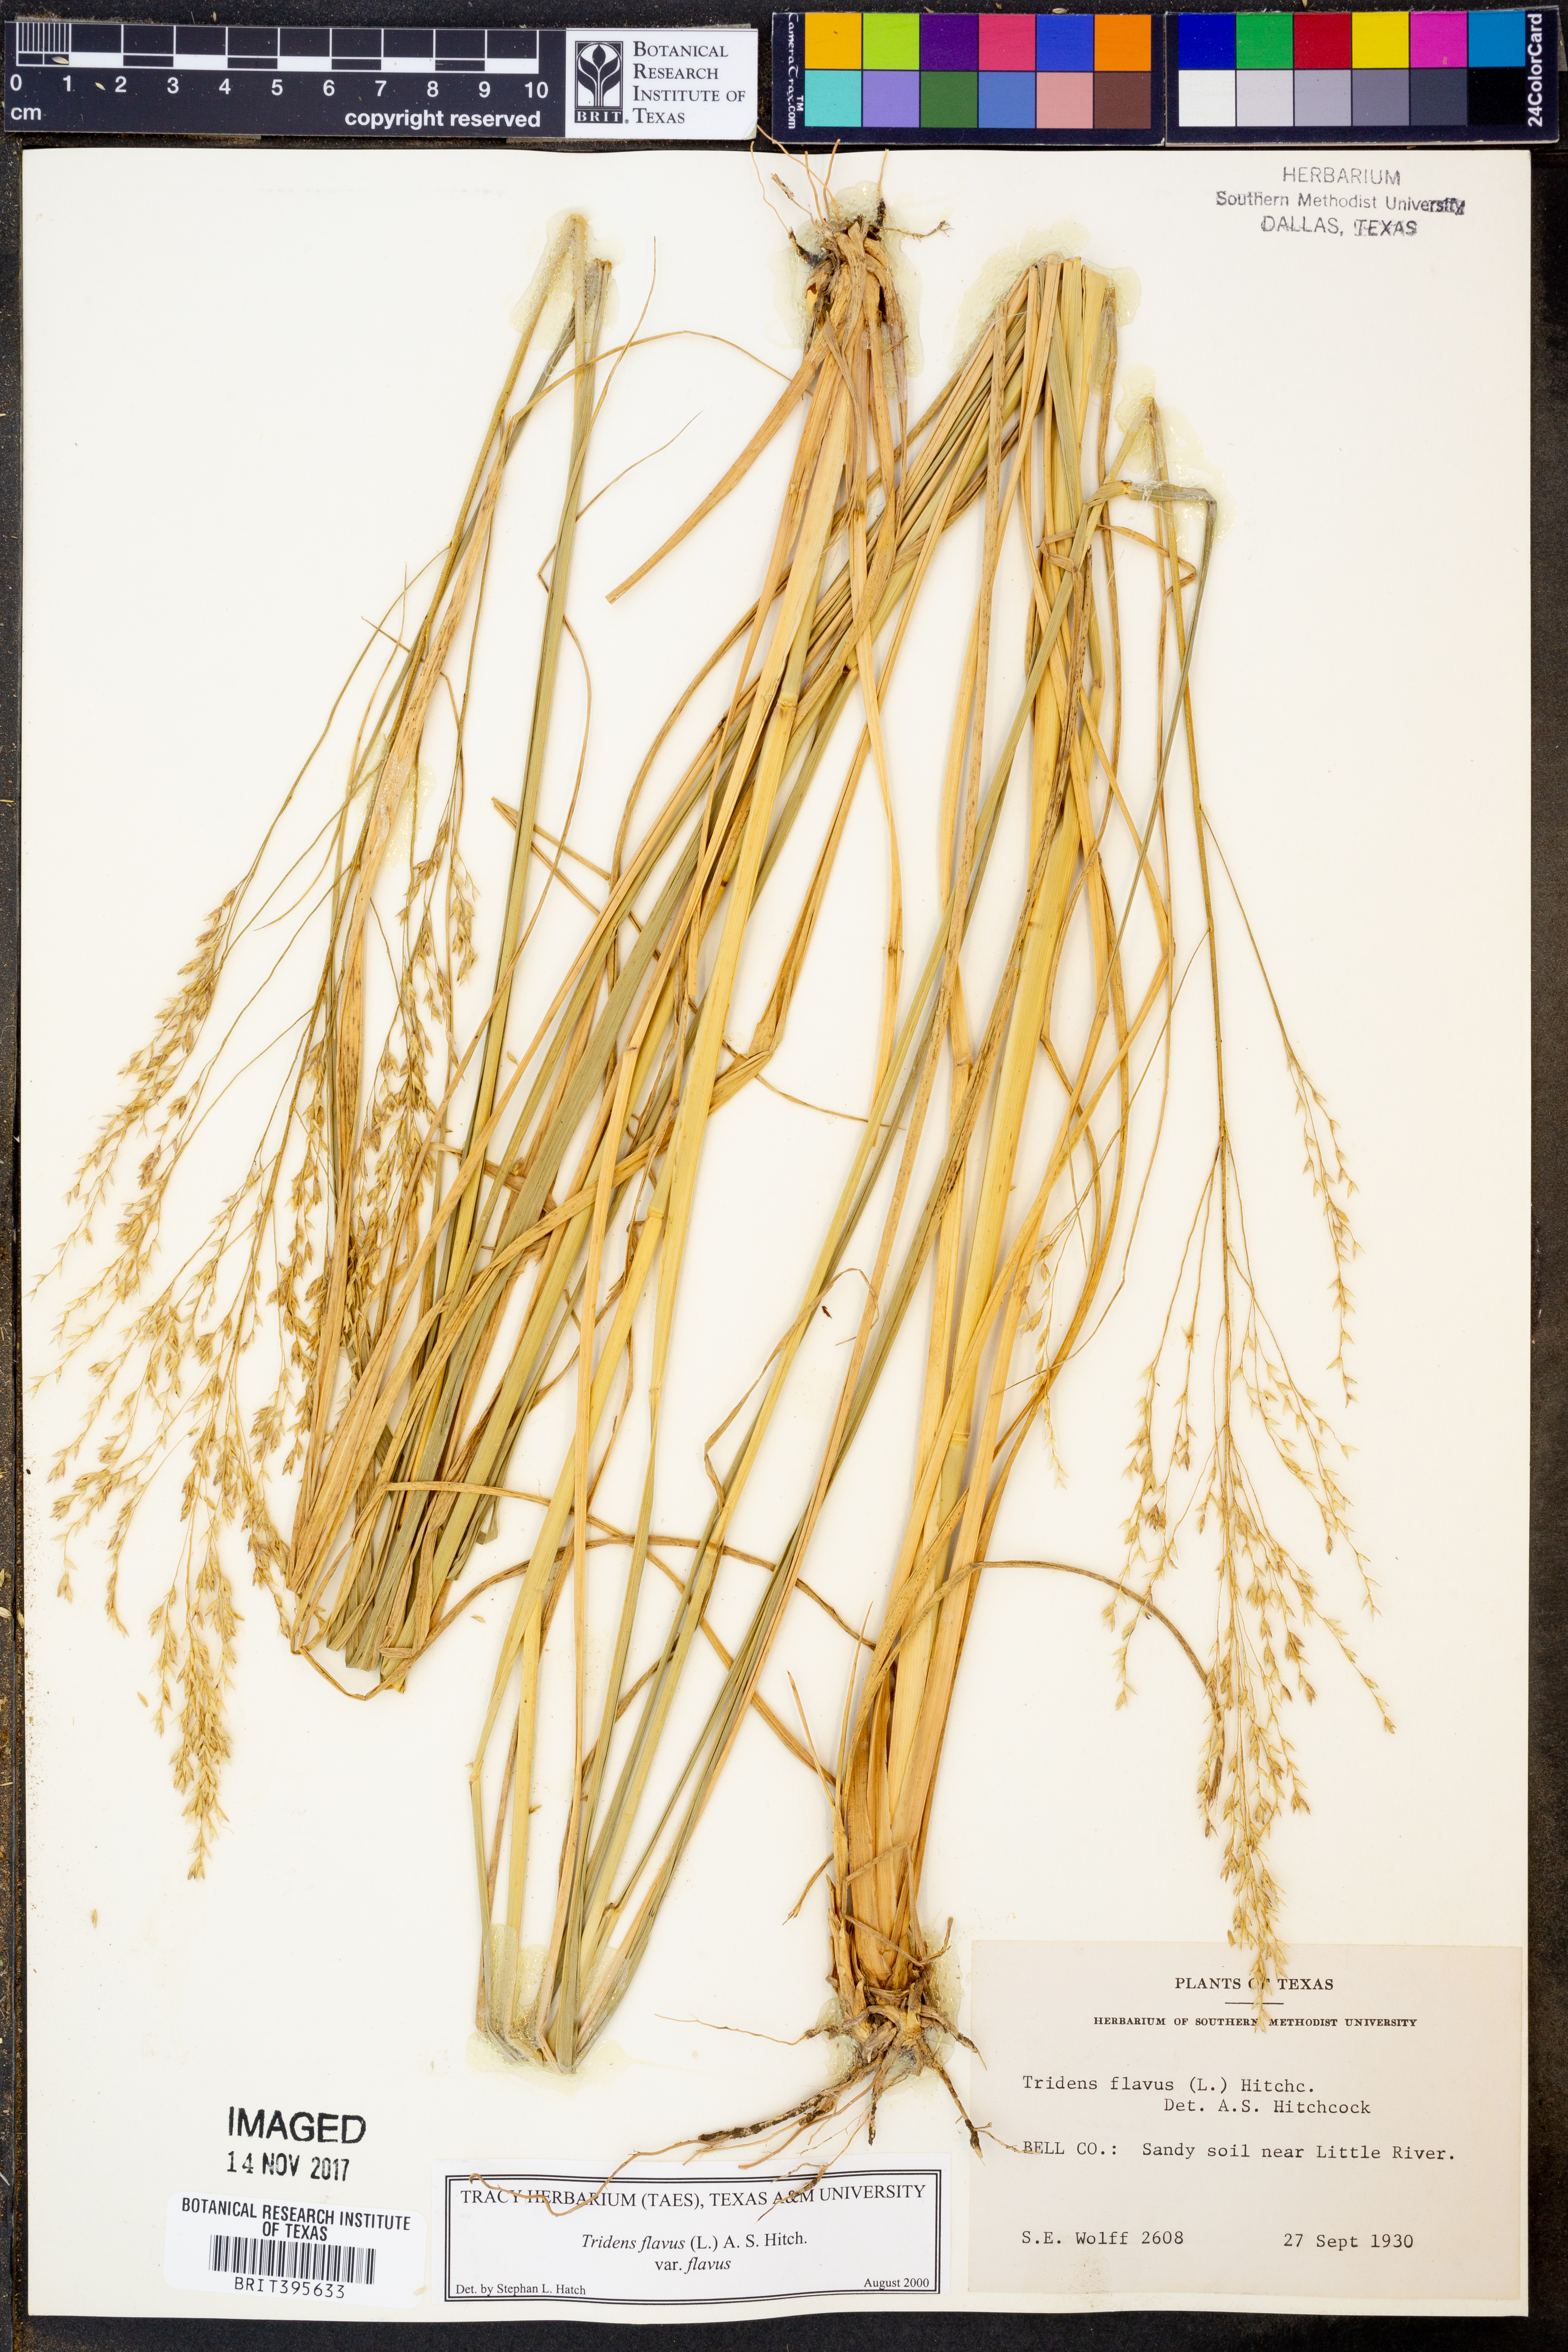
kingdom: Plantae
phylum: Tracheophyta
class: Liliopsida
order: Poales
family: Poaceae
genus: Tridens
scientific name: Tridens flavus
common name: Purpletop
